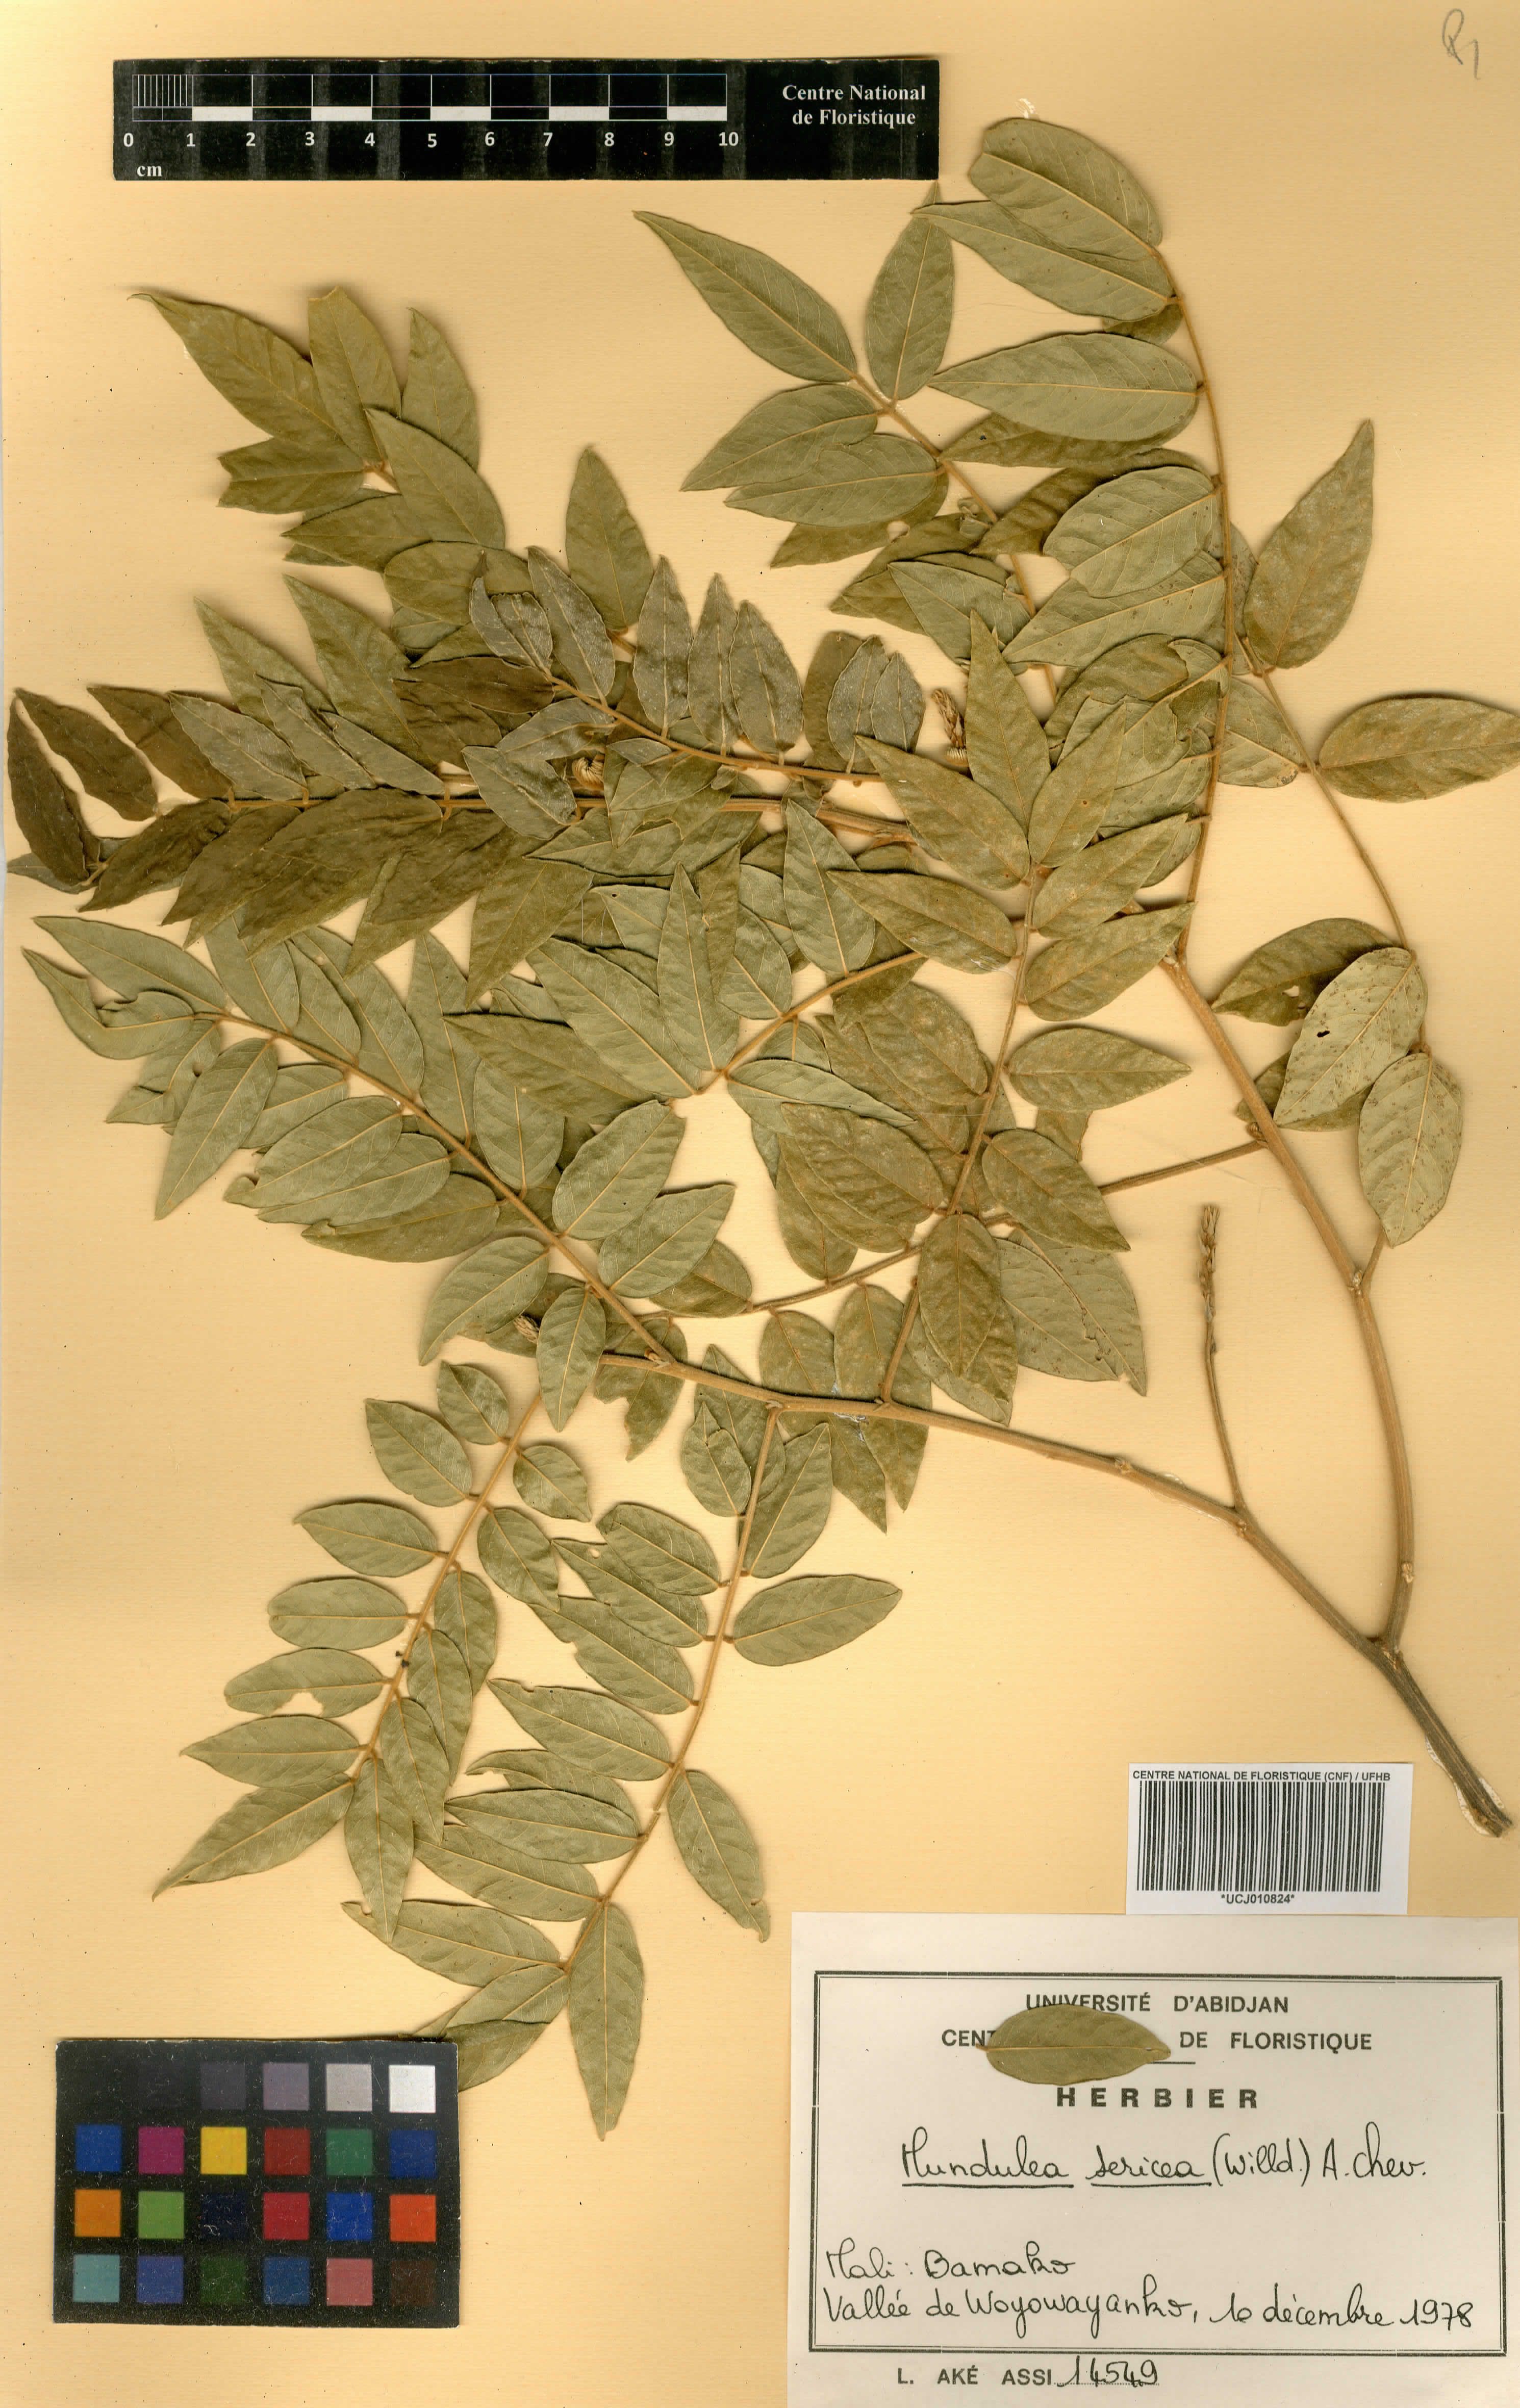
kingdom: Plantae
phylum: Tracheophyta
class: Magnoliopsida
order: Fabales
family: Fabaceae
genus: Mundulea
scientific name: Mundulea sericea
